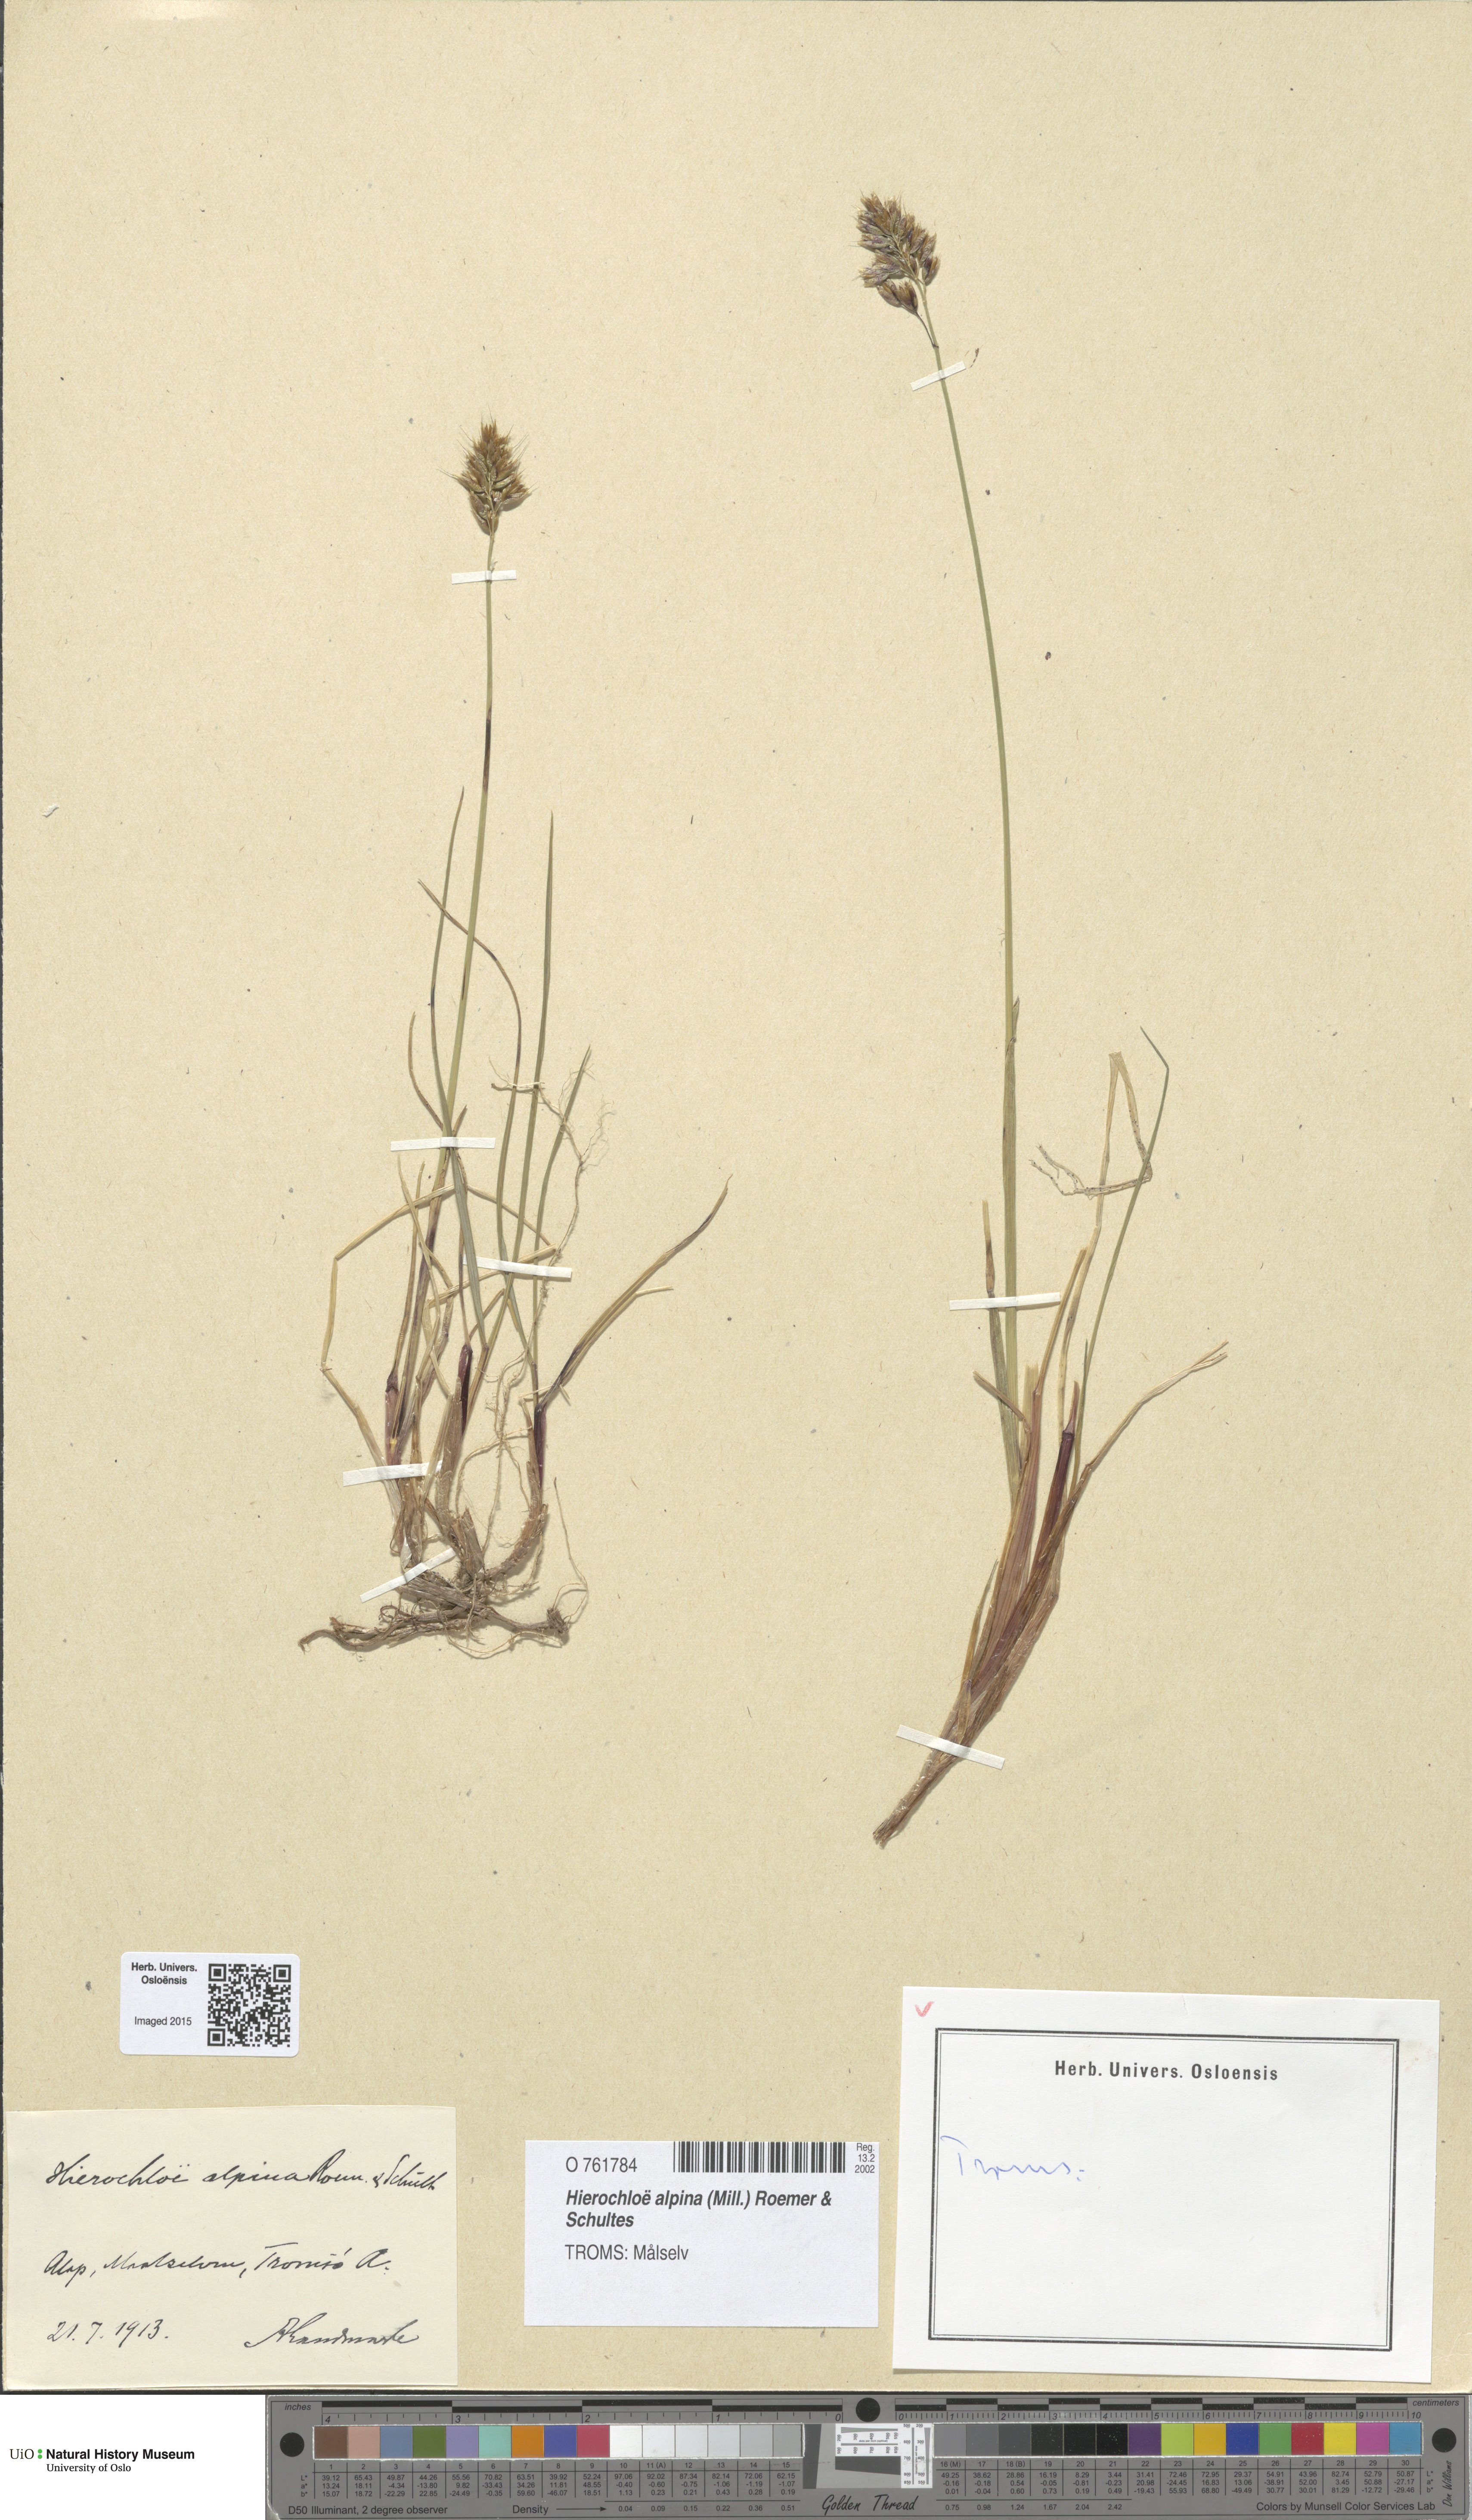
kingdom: Plantae
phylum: Tracheophyta
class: Liliopsida
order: Poales
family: Poaceae
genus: Anthoxanthum
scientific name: Anthoxanthum monticola
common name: Alpine sweetgrass
